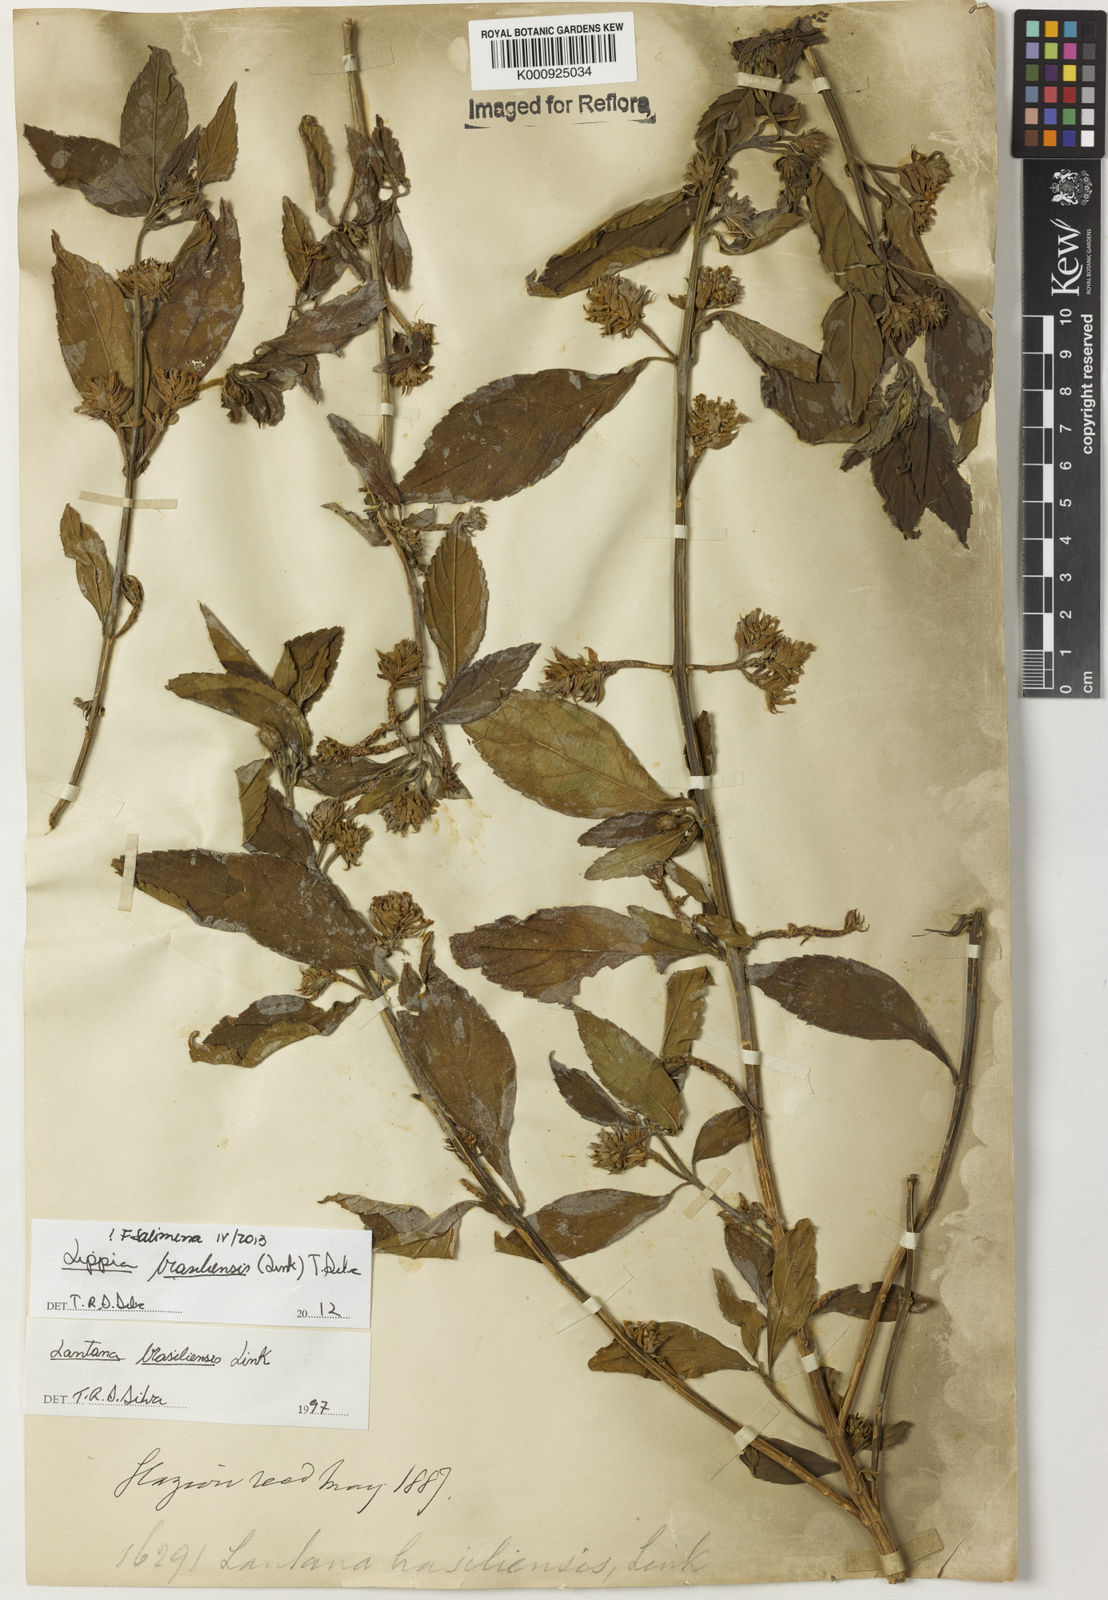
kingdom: Plantae
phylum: Tracheophyta
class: Magnoliopsida
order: Lamiales
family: Verbenaceae
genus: Lippia
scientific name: Lippia brasiliensis
